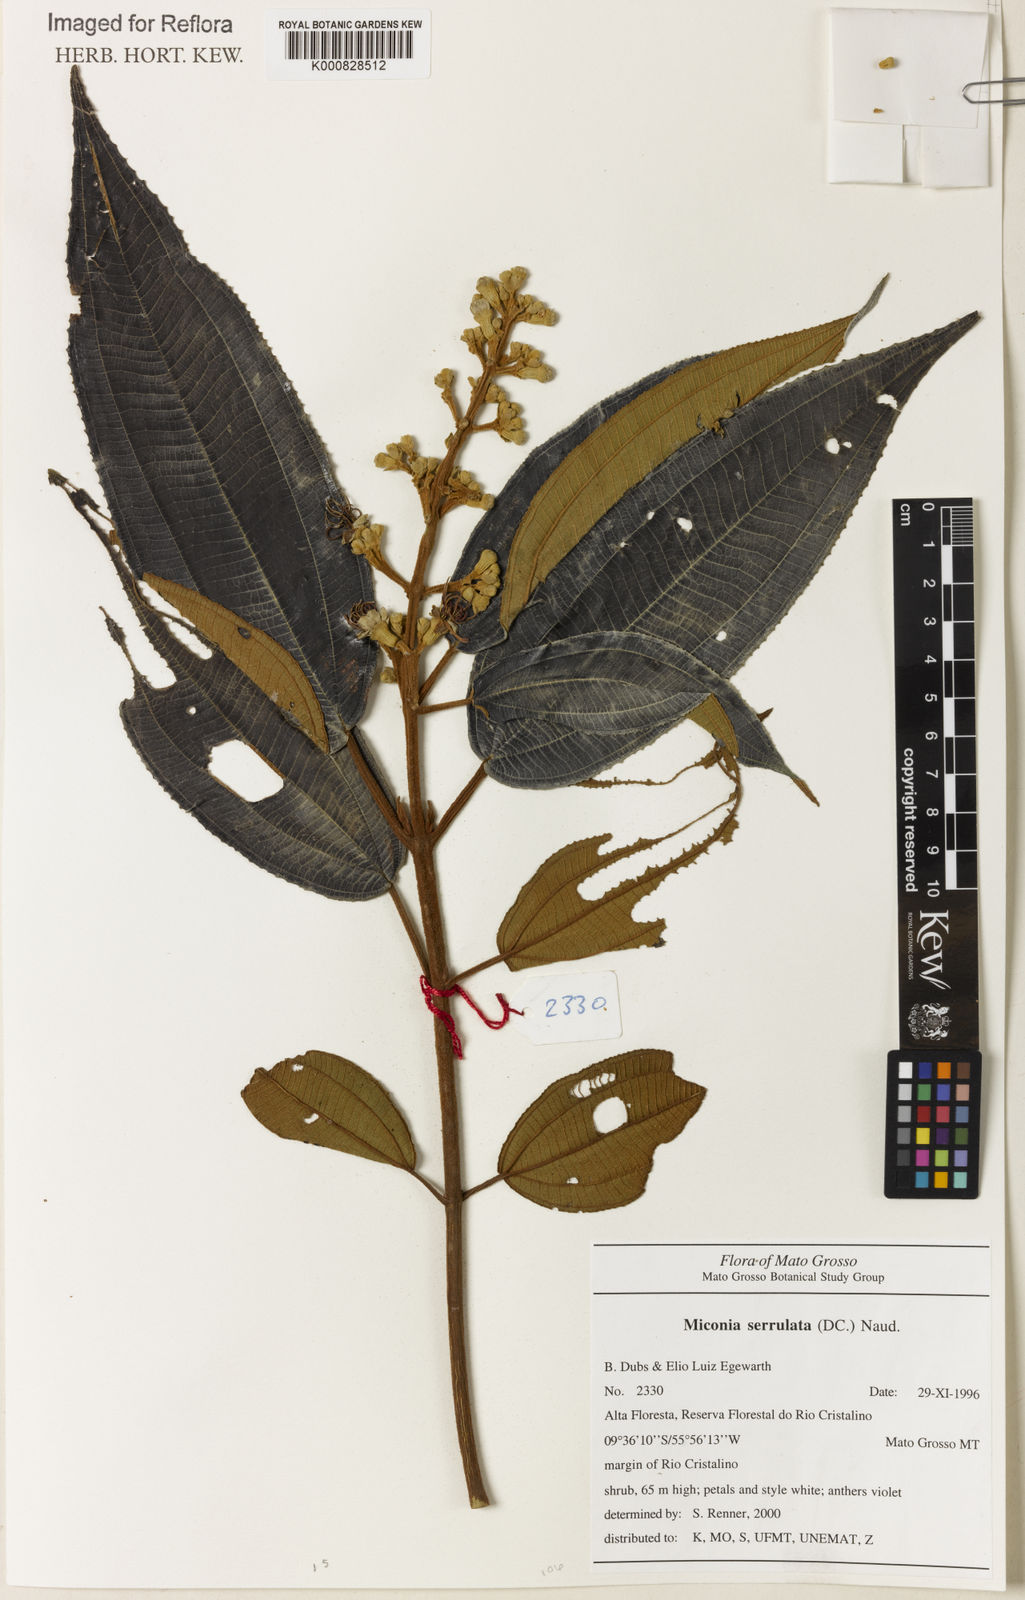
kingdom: Plantae
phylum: Tracheophyta
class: Magnoliopsida
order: Myrtales
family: Melastomataceae
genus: Miconia
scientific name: Miconia serrulata
